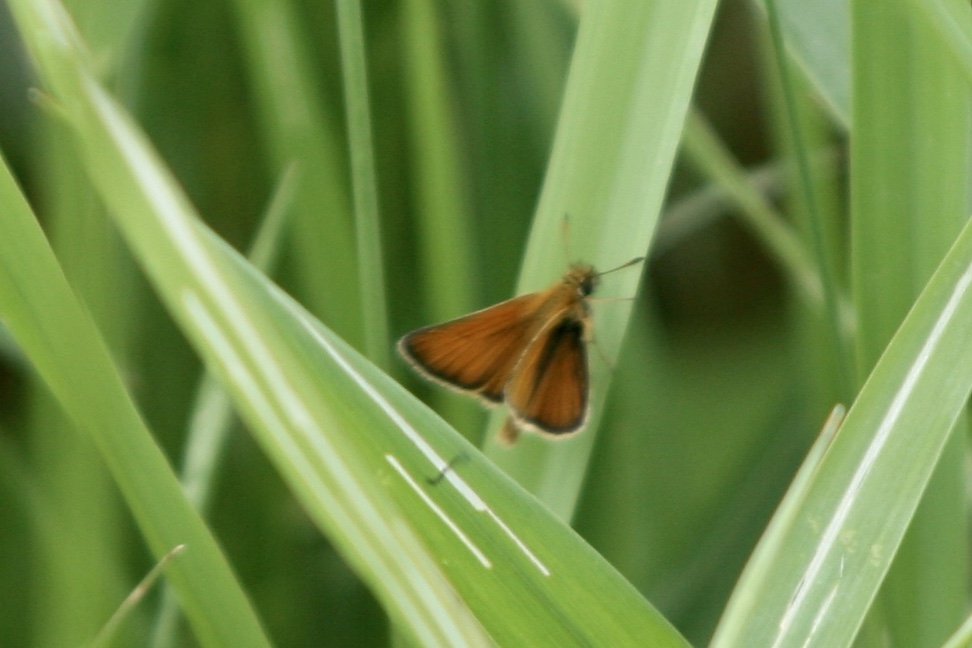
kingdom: Animalia
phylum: Arthropoda
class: Insecta
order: Lepidoptera
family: Hesperiidae
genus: Thymelicus
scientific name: Thymelicus lineola
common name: European Skipper
